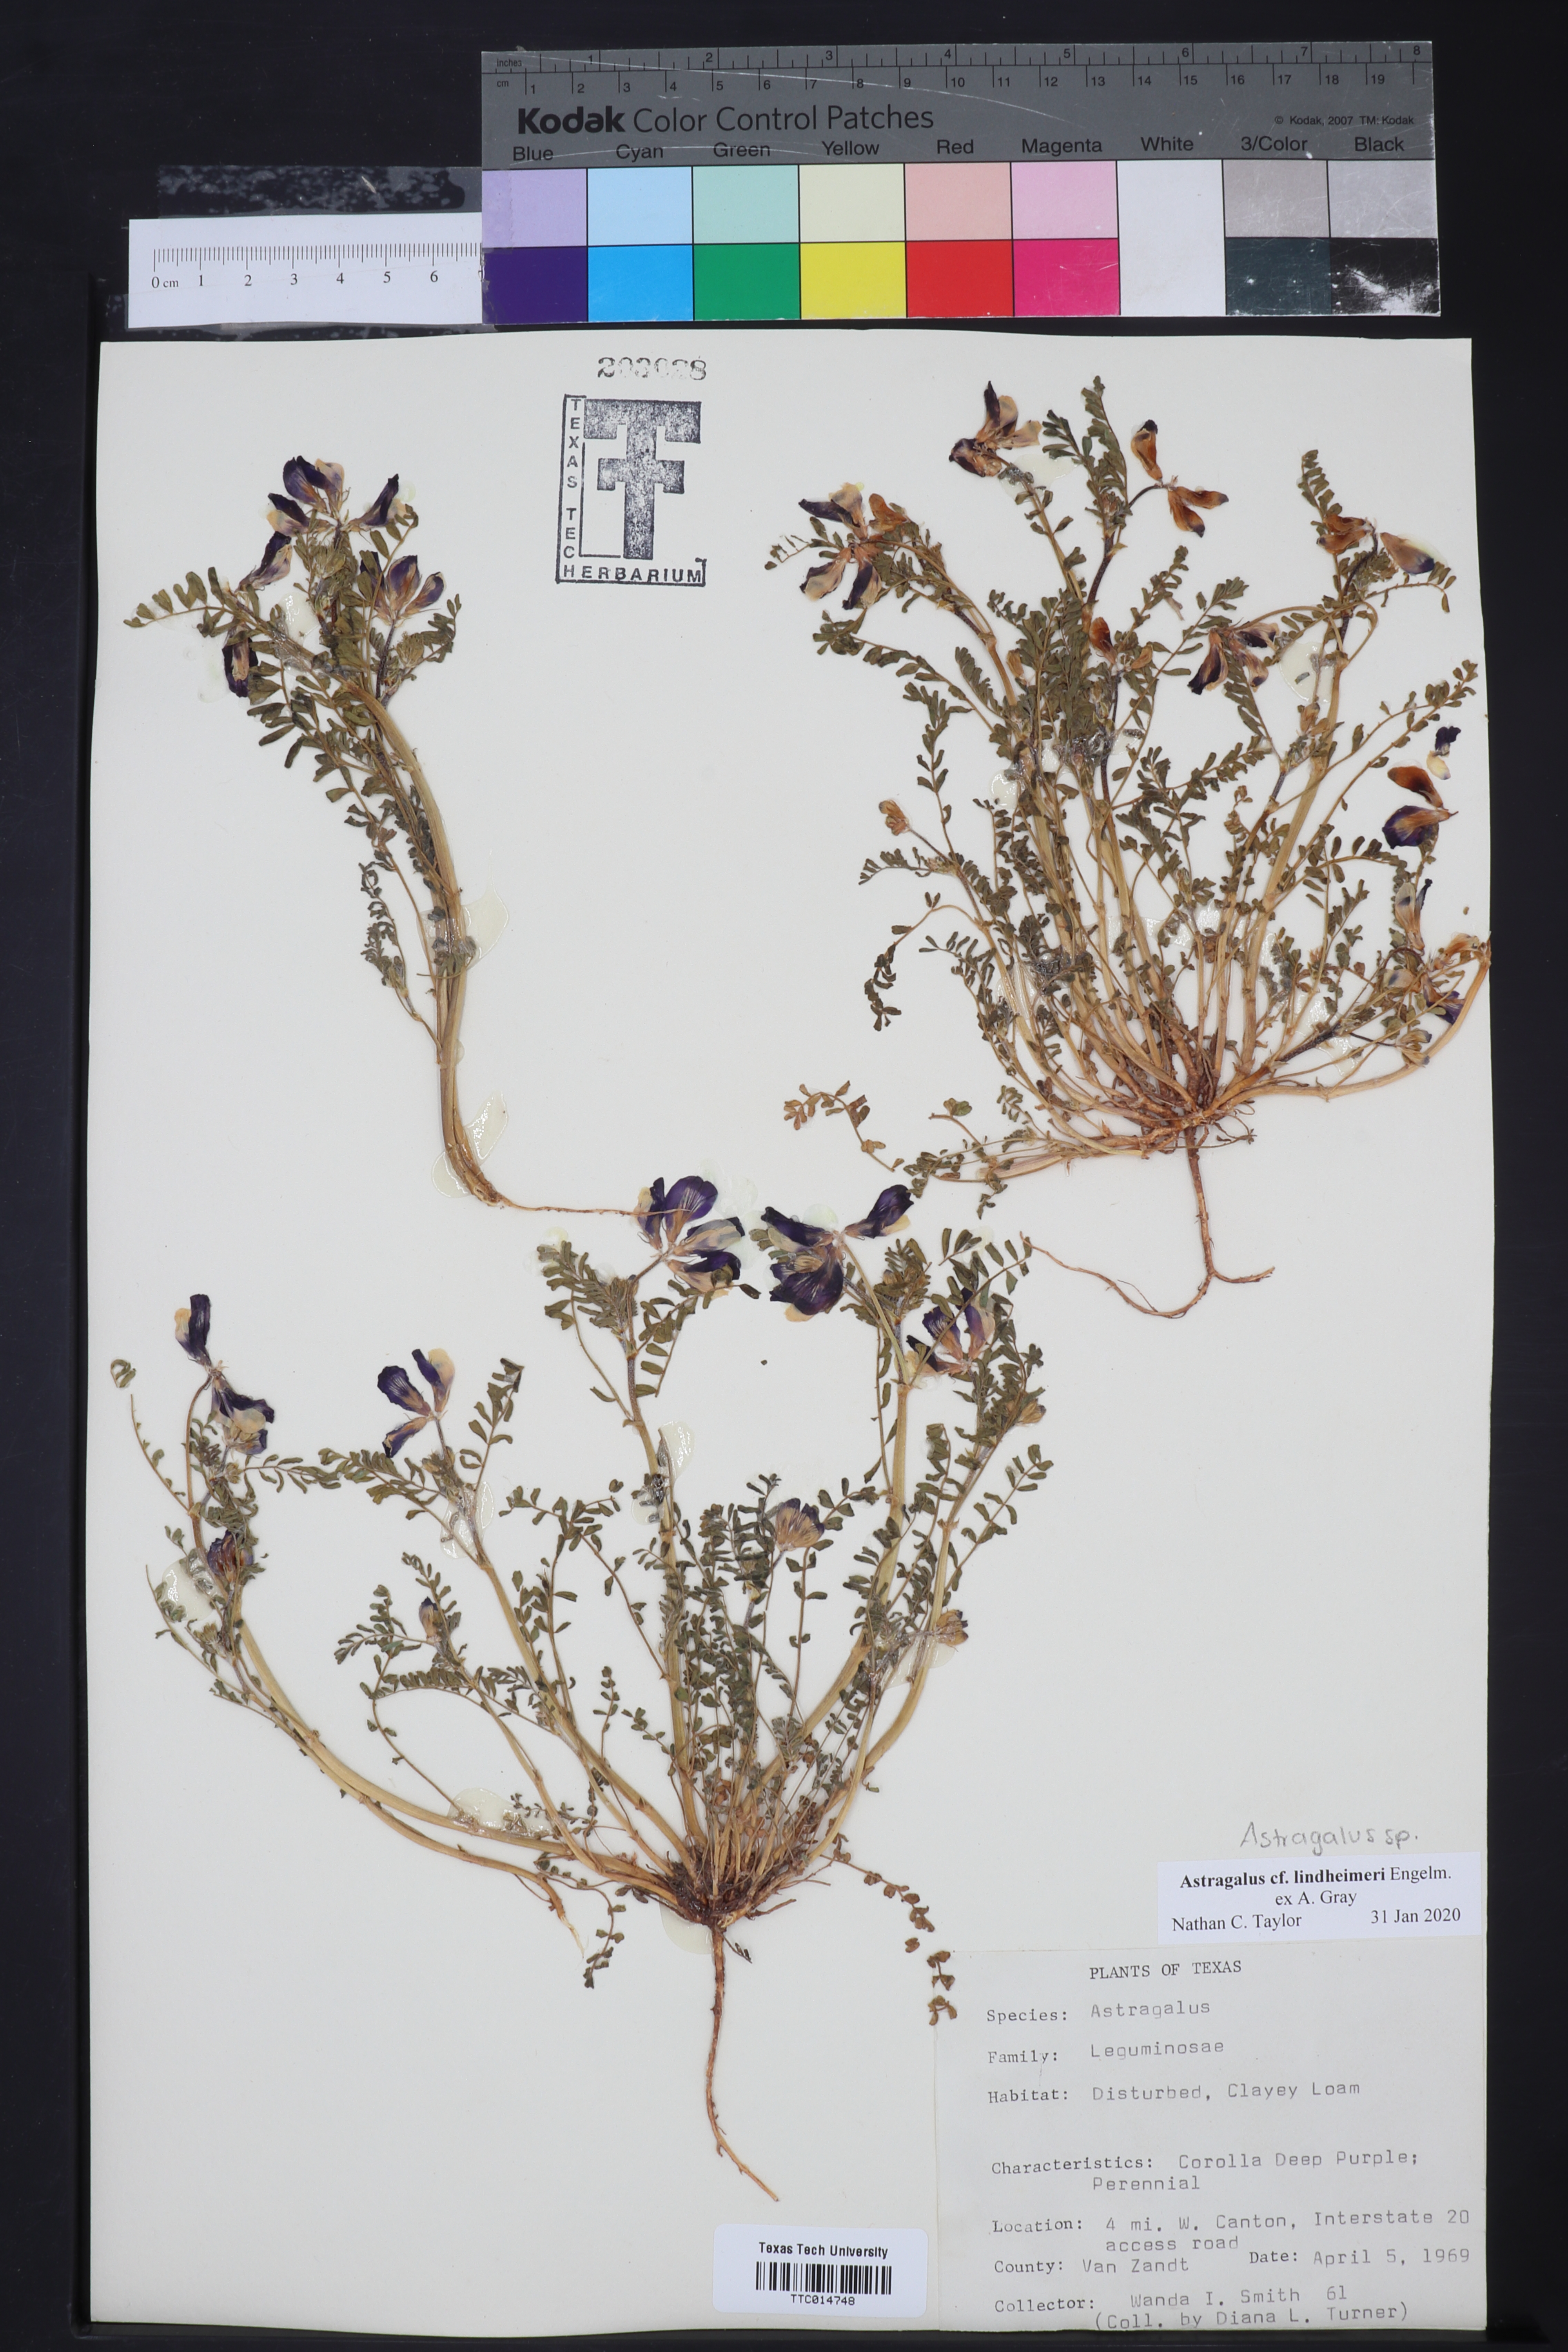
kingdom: Plantae
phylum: Tracheophyta
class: Magnoliopsida
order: Fabales
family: Fabaceae
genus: Astragalus
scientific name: Astragalus lindheimeri
